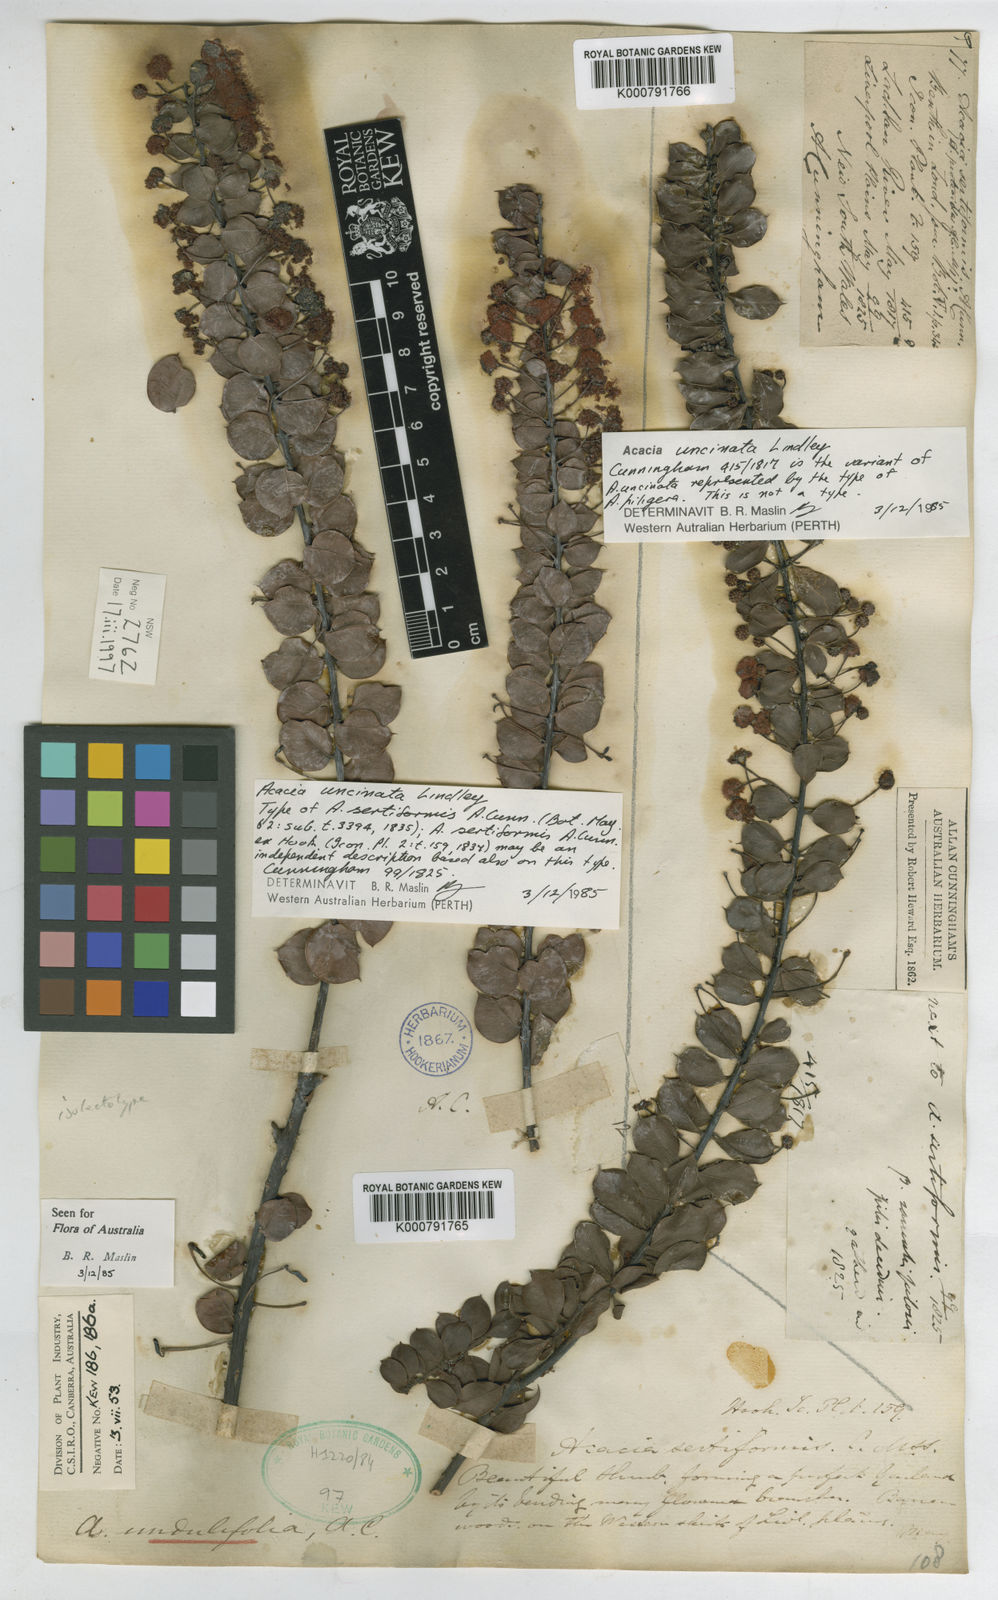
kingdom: Plantae
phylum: Tracheophyta
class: Magnoliopsida
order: Fabales
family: Fabaceae
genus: Acacia
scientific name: Acacia undulifolia
